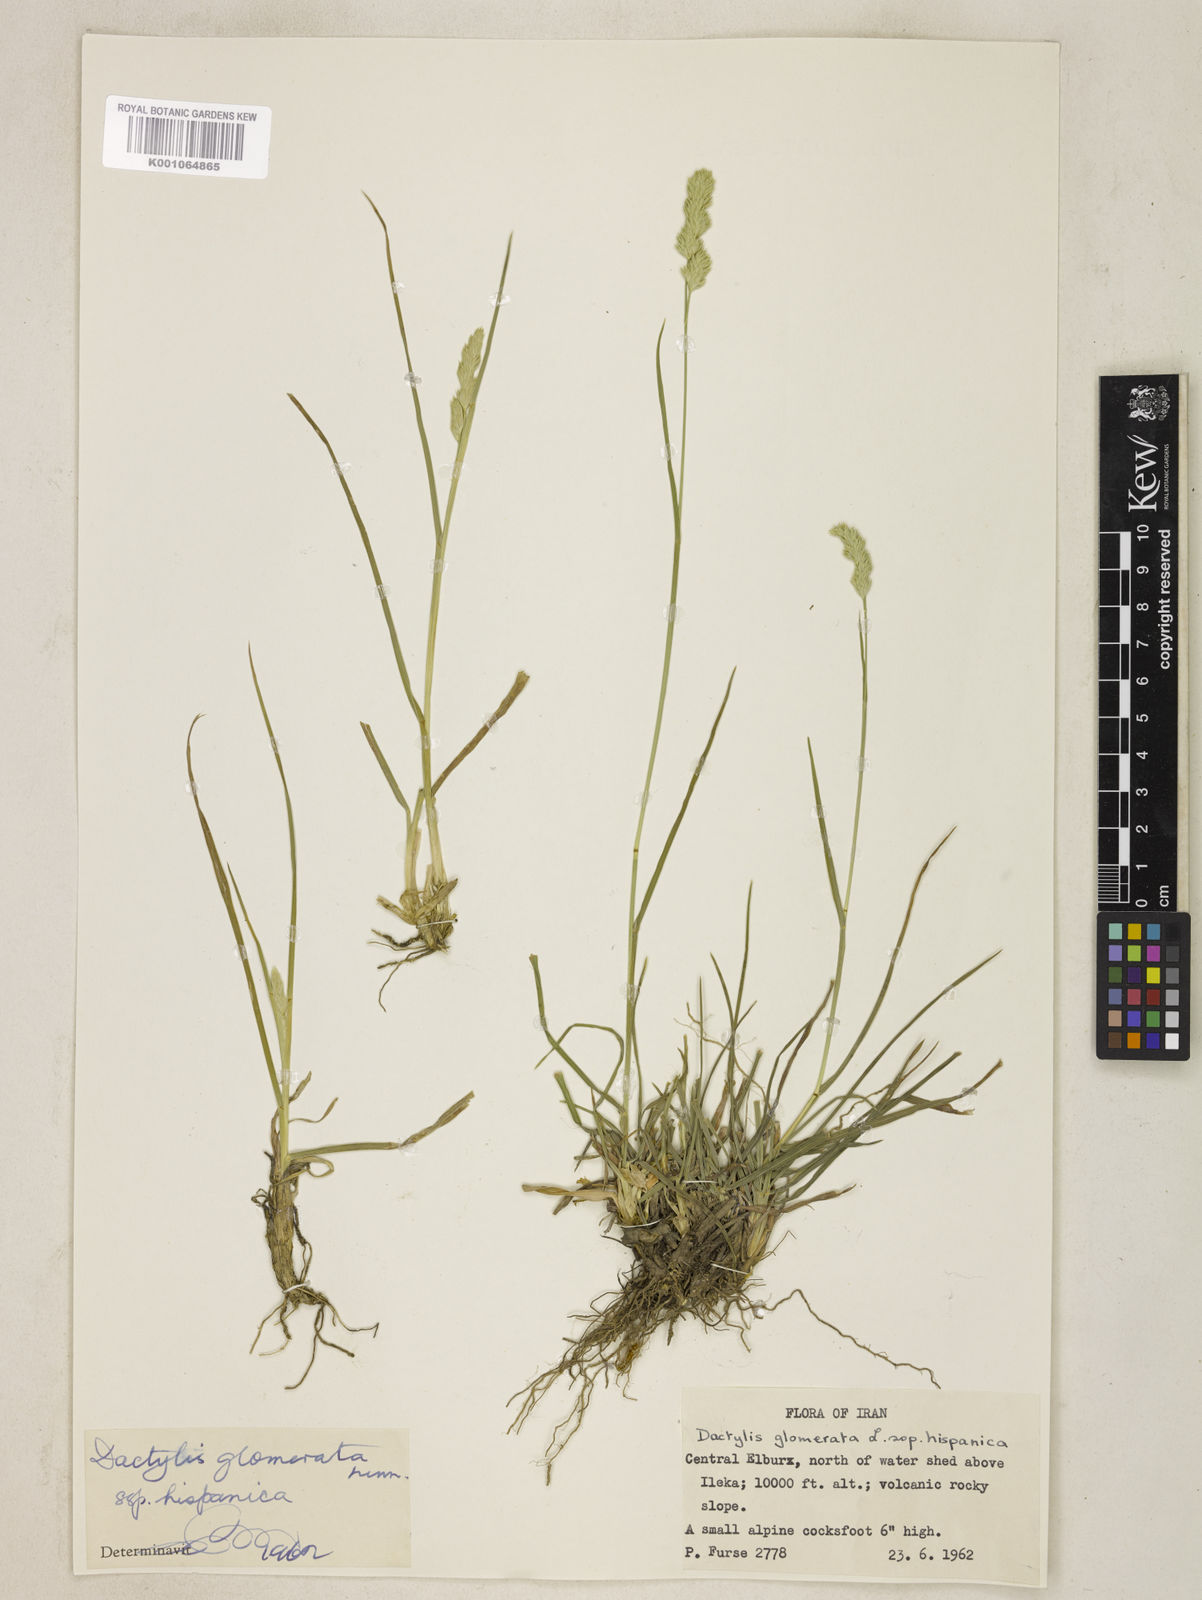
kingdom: Plantae
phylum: Tracheophyta
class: Liliopsida
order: Poales
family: Poaceae
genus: Dactylis
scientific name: Dactylis glomerata
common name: Orchardgrass
